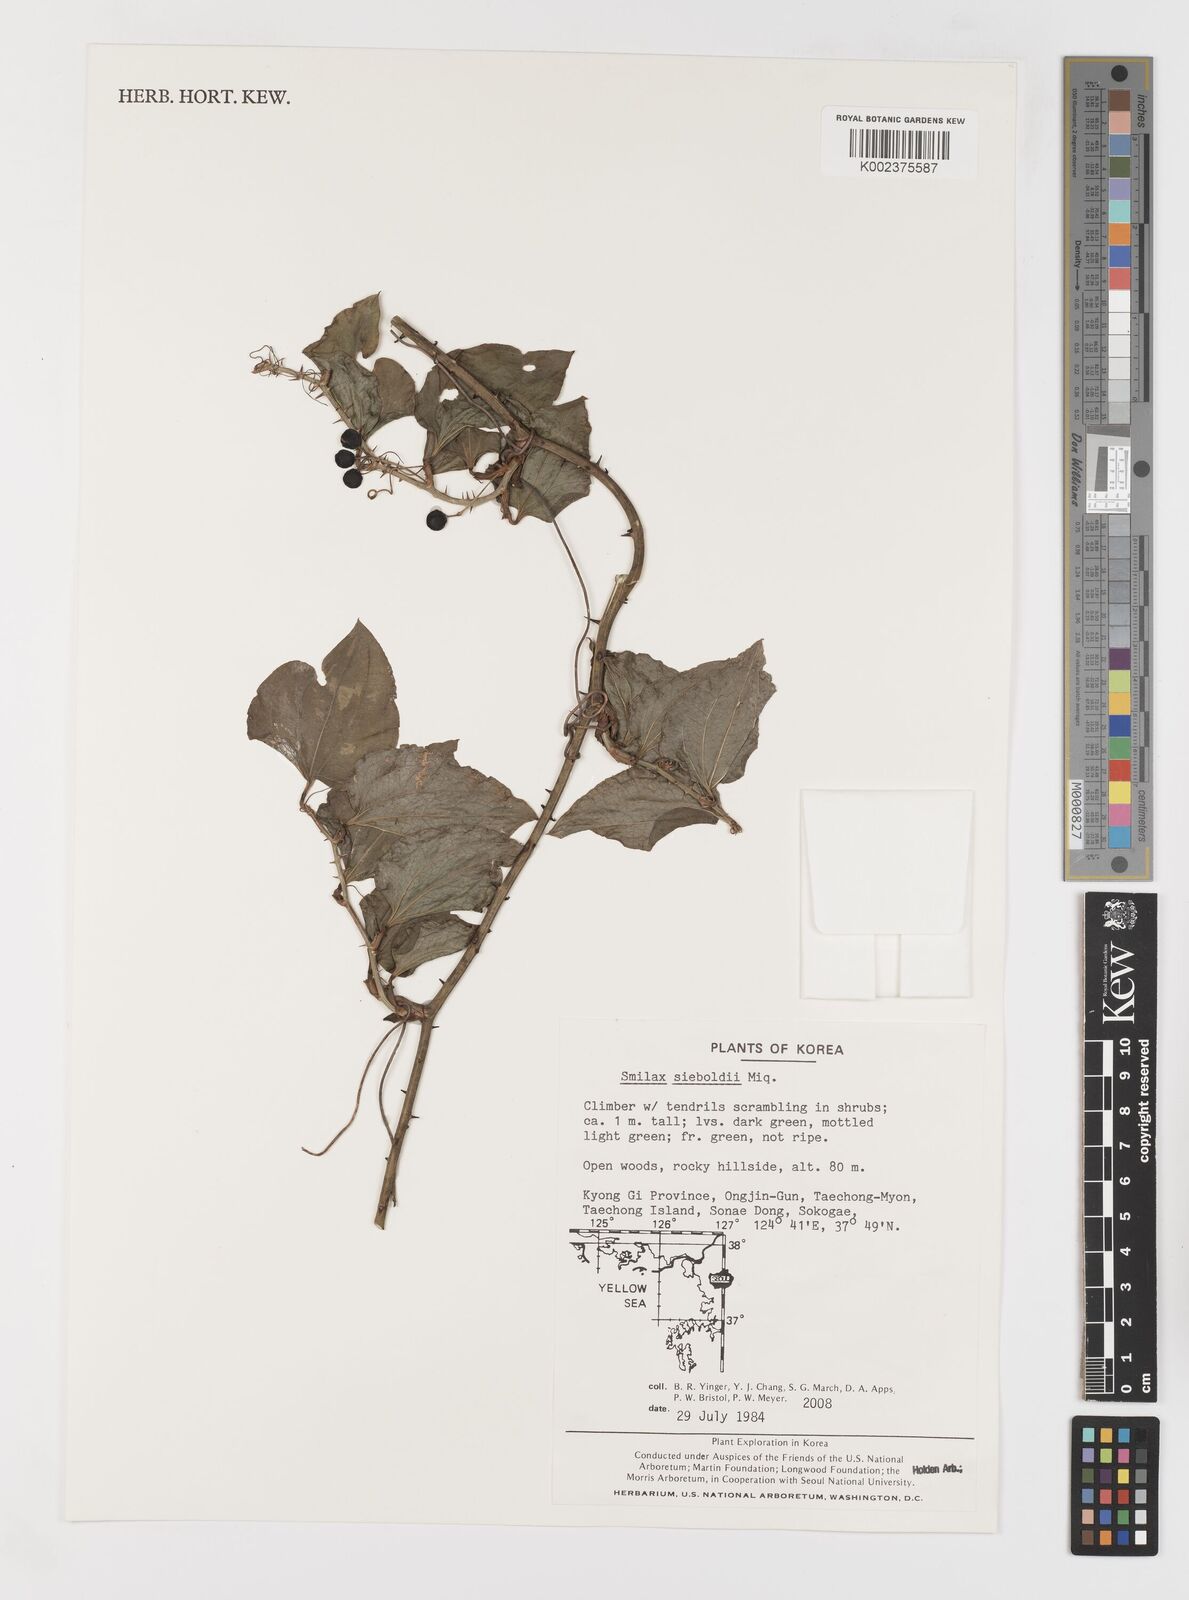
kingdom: Plantae
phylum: Tracheophyta
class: Liliopsida
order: Liliales
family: Smilacaceae
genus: Smilax
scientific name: Smilax sieboldii
